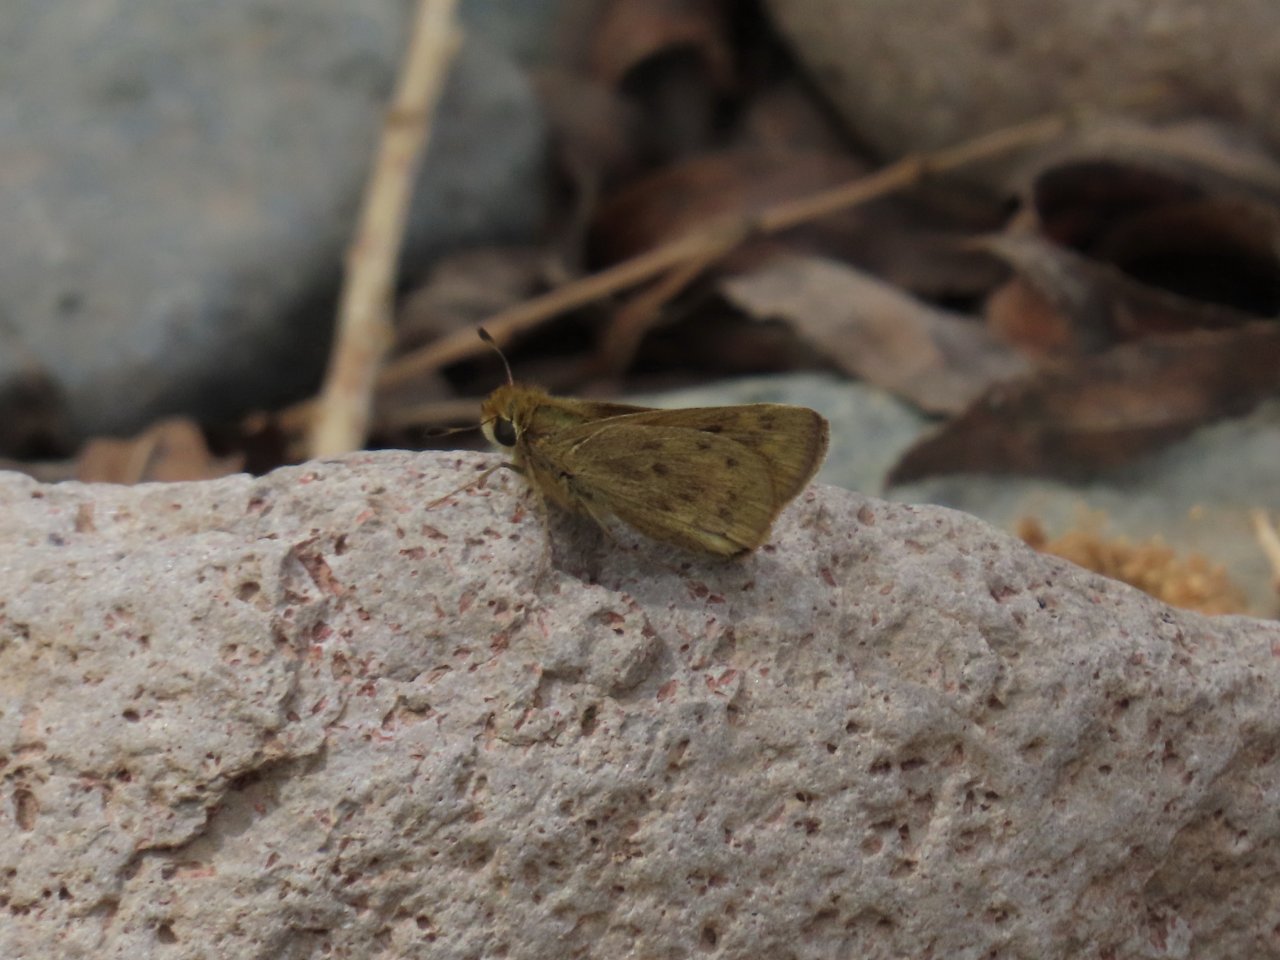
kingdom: Animalia
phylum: Arthropoda
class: Insecta
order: Lepidoptera
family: Hesperiidae
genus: Hylephila
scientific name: Hylephila phyleus
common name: Fiery Skipper
